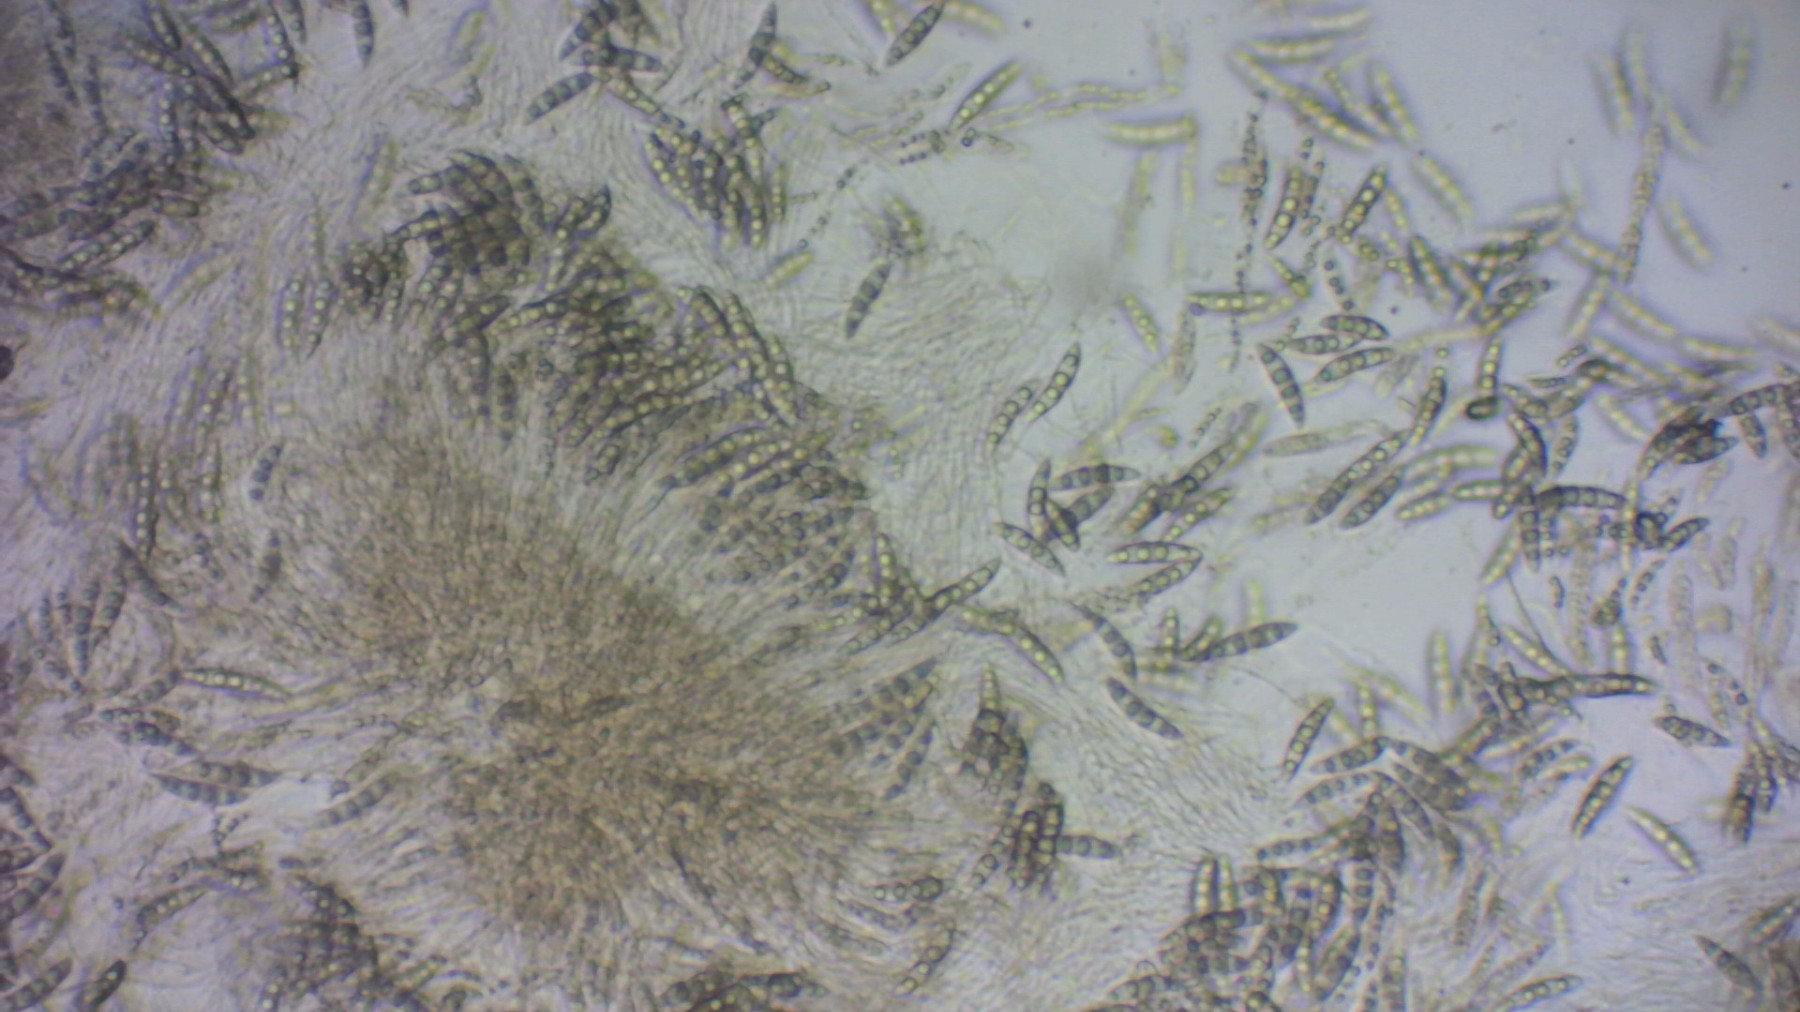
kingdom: Fungi
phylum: Ascomycota
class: Dothideomycetes
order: Pleosporales
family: Lophiostomataceae
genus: Lophiostoma
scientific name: Lophiostoma macrostomum
